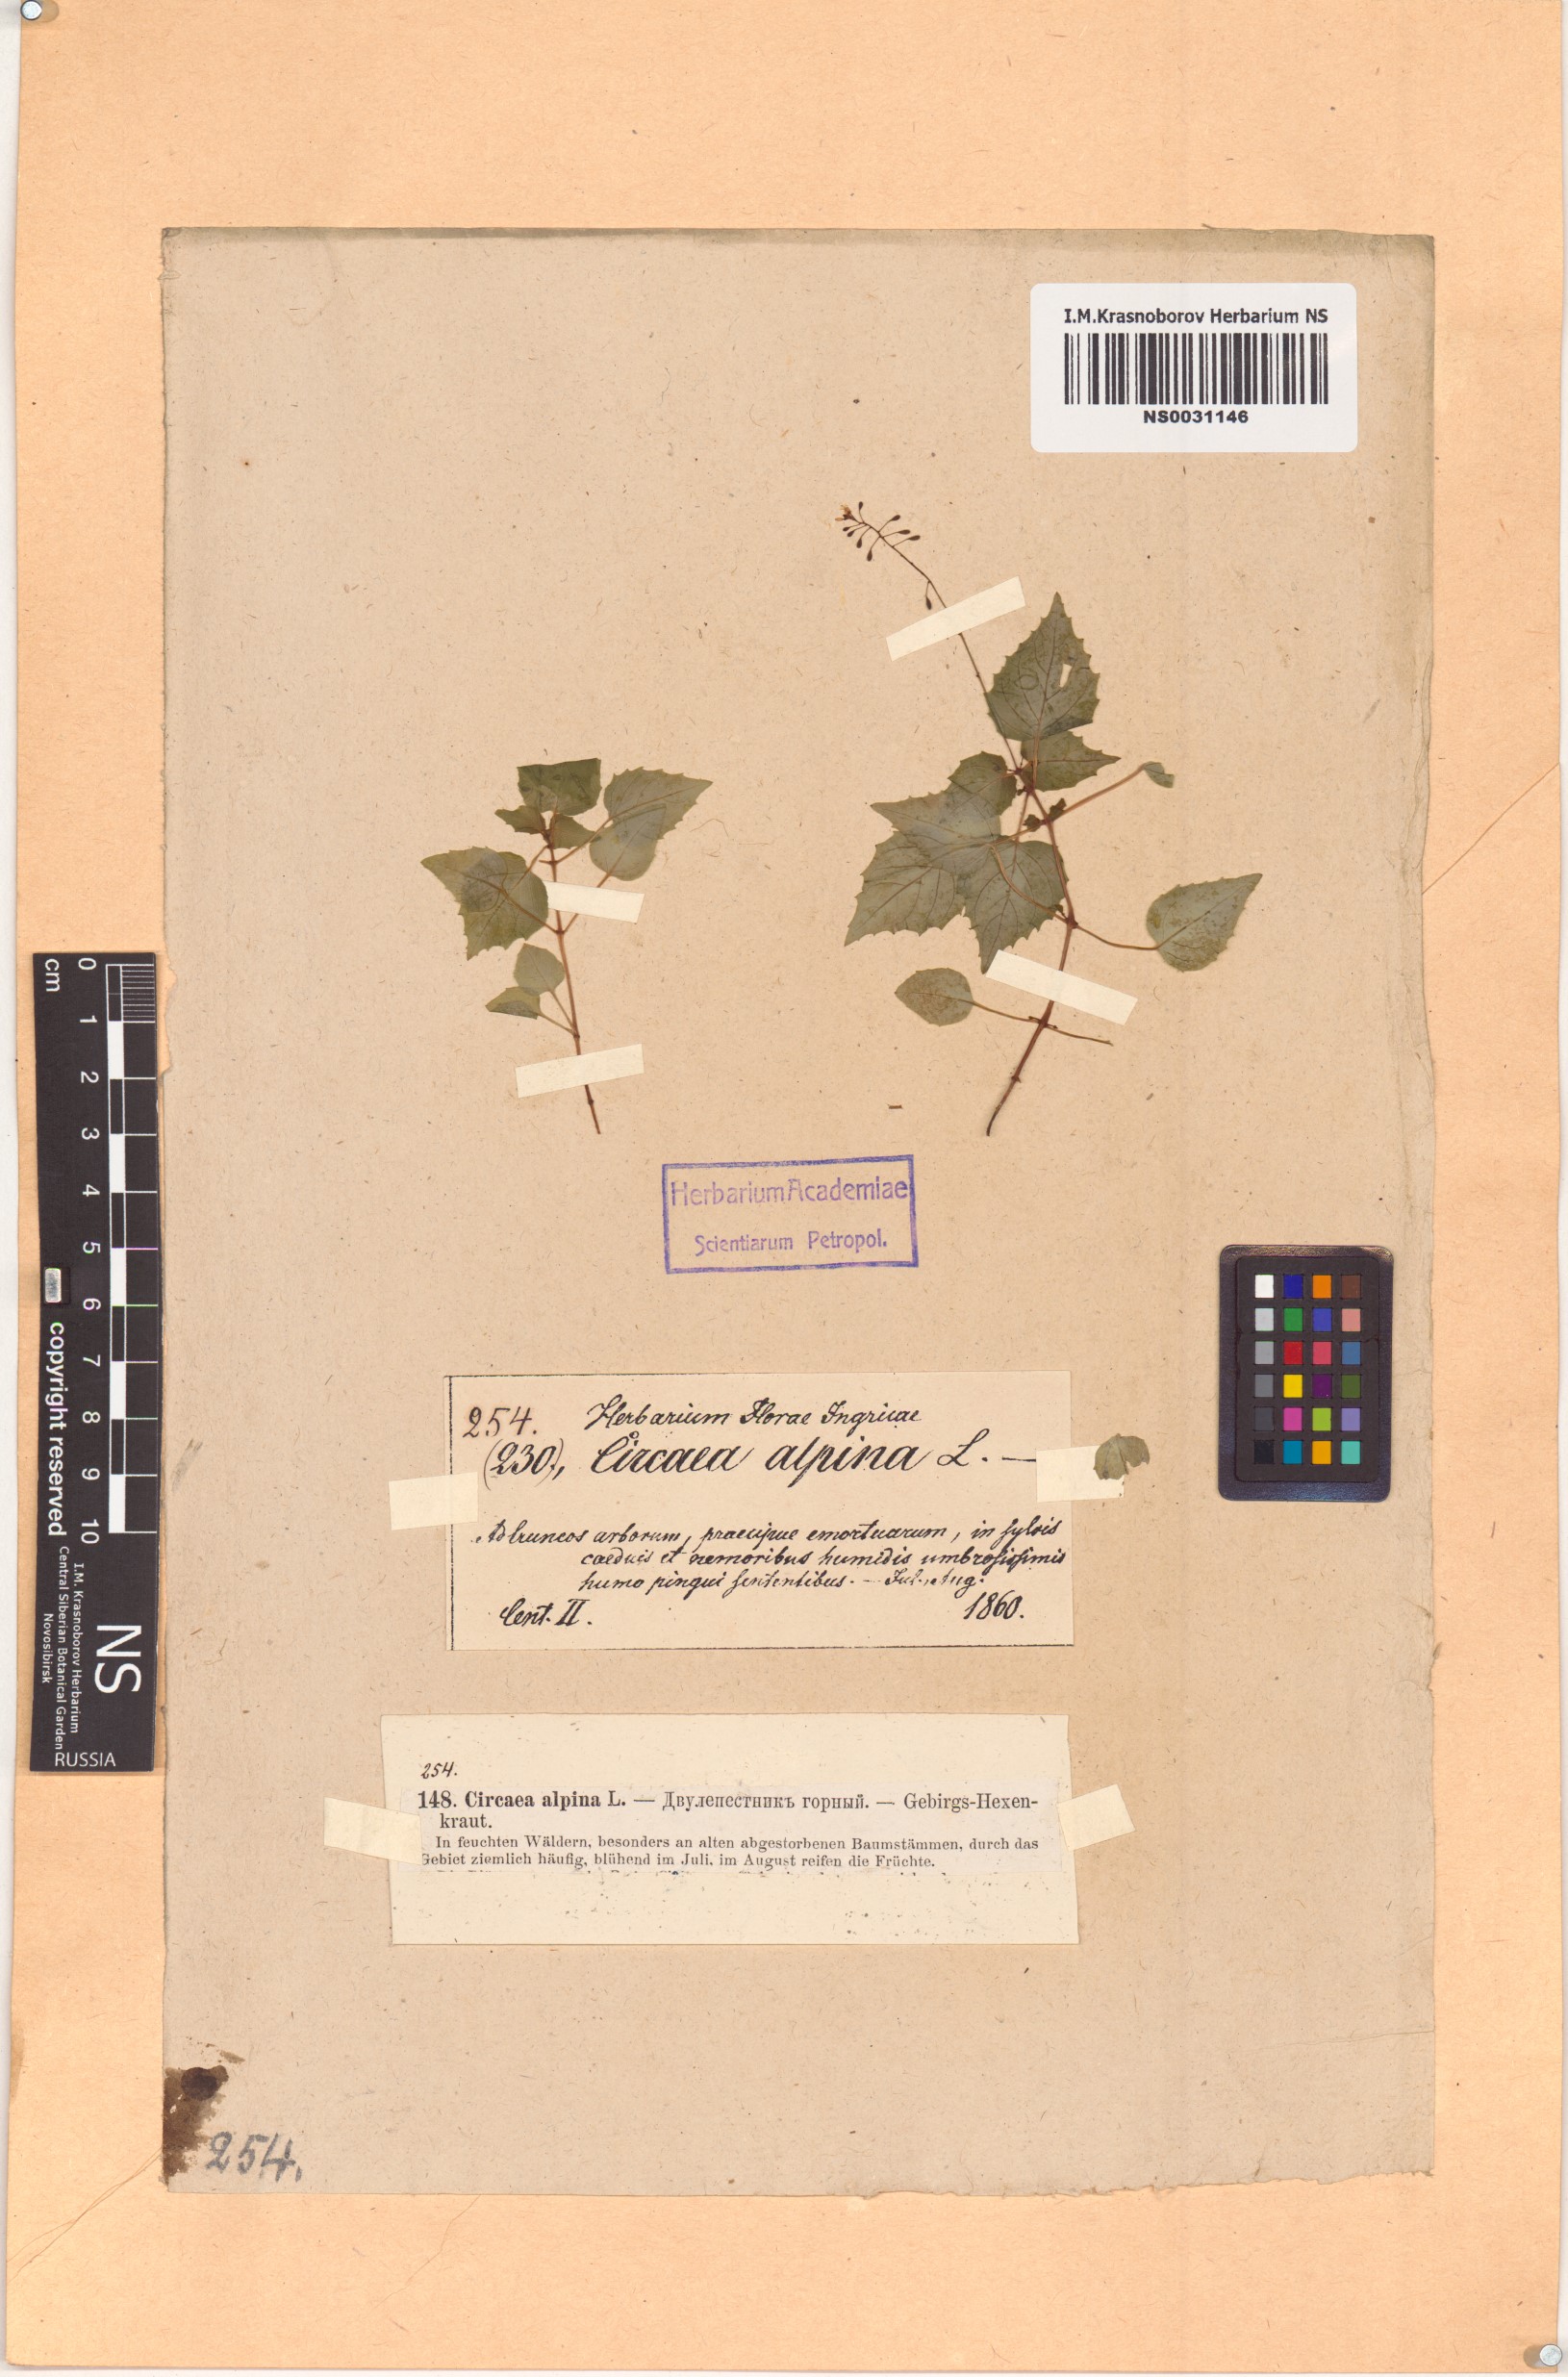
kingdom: Plantae
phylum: Tracheophyta
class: Magnoliopsida
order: Myrtales
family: Onagraceae
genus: Circaea
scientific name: Circaea alpina
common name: Alpine enchanter's-nightshade
